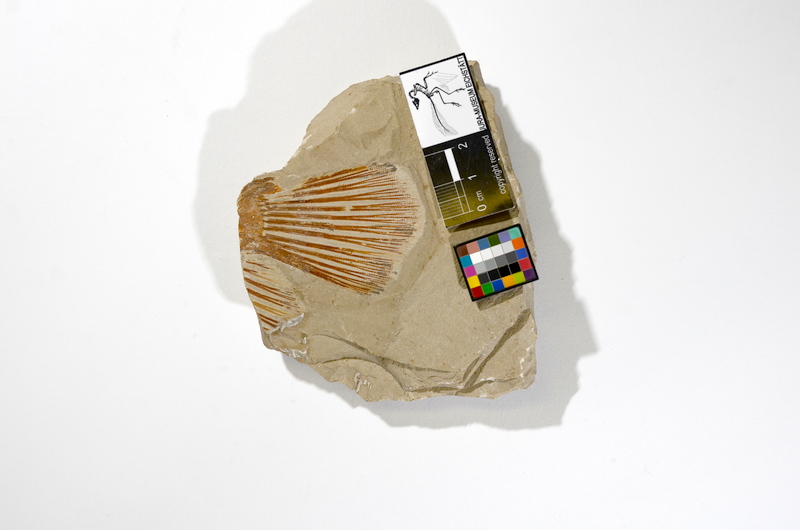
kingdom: Animalia
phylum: Chordata
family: Macrosemiidae
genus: Macrosemius
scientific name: Macrosemius rostratus
